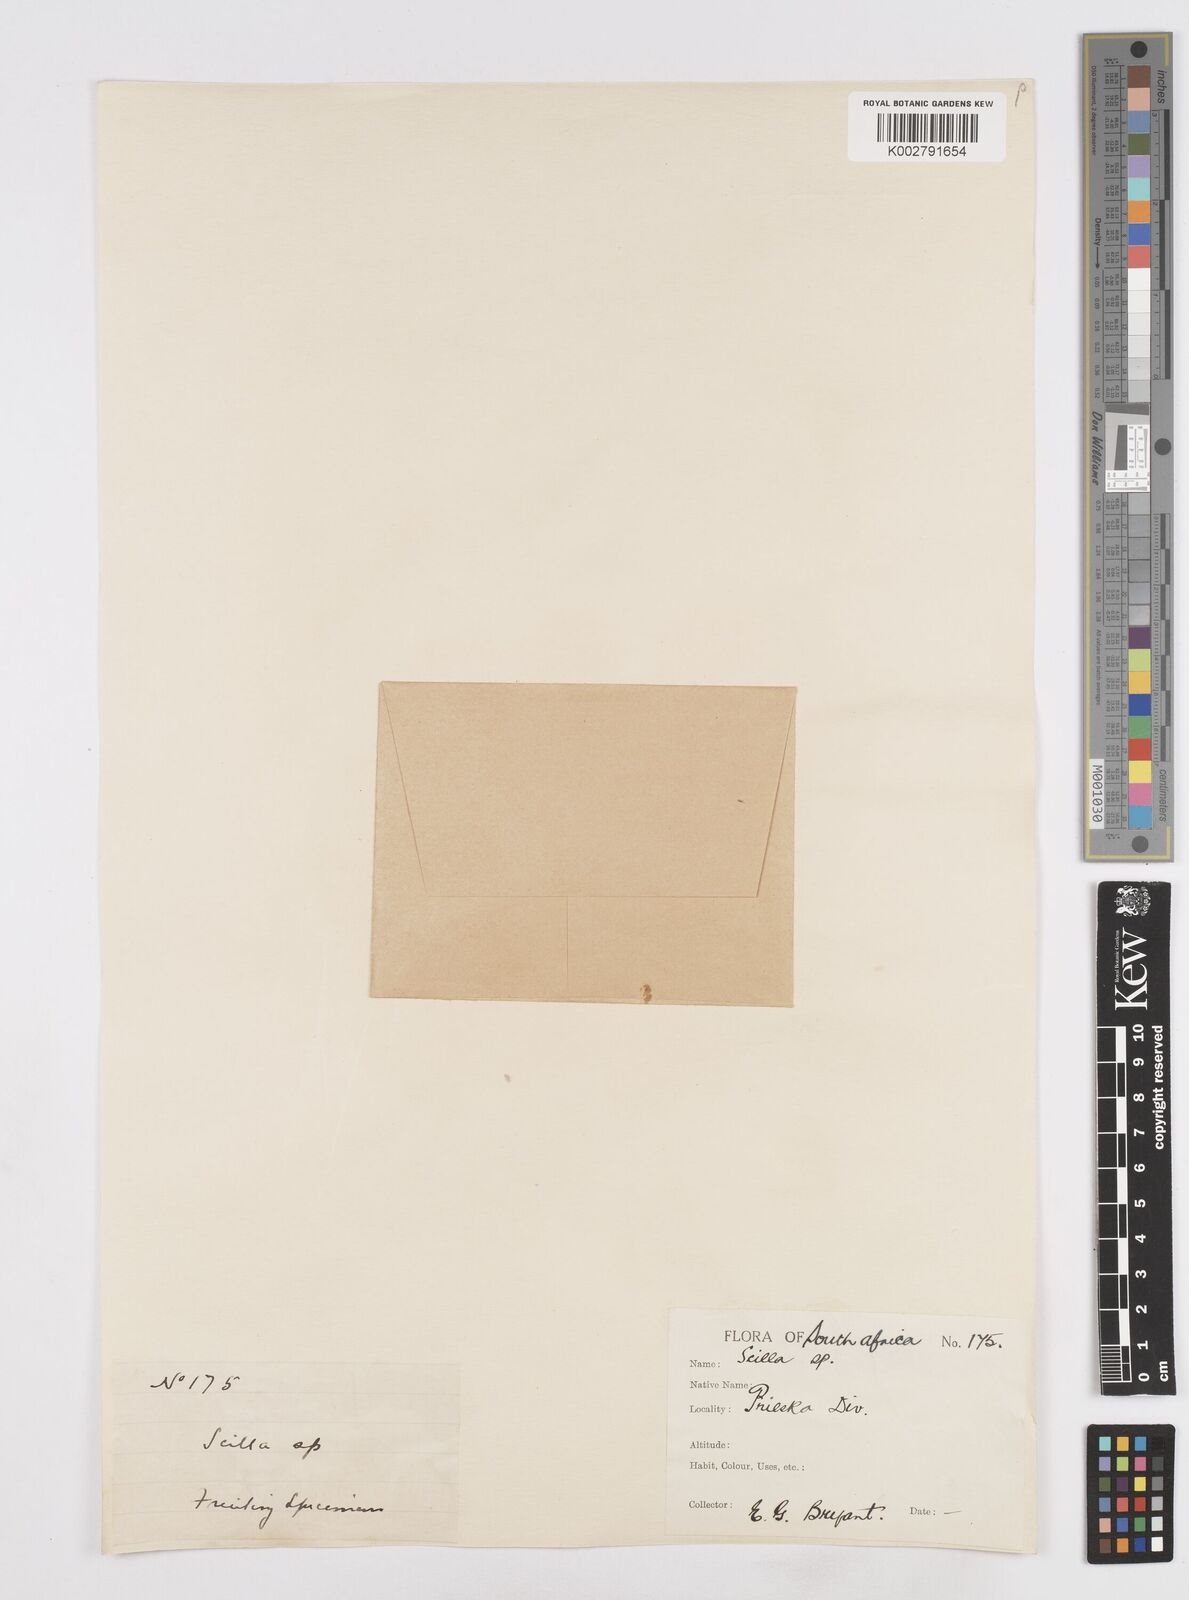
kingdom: Plantae
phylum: Tracheophyta
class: Liliopsida
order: Asparagales
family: Asparagaceae
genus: Scilla
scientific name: Scilla
